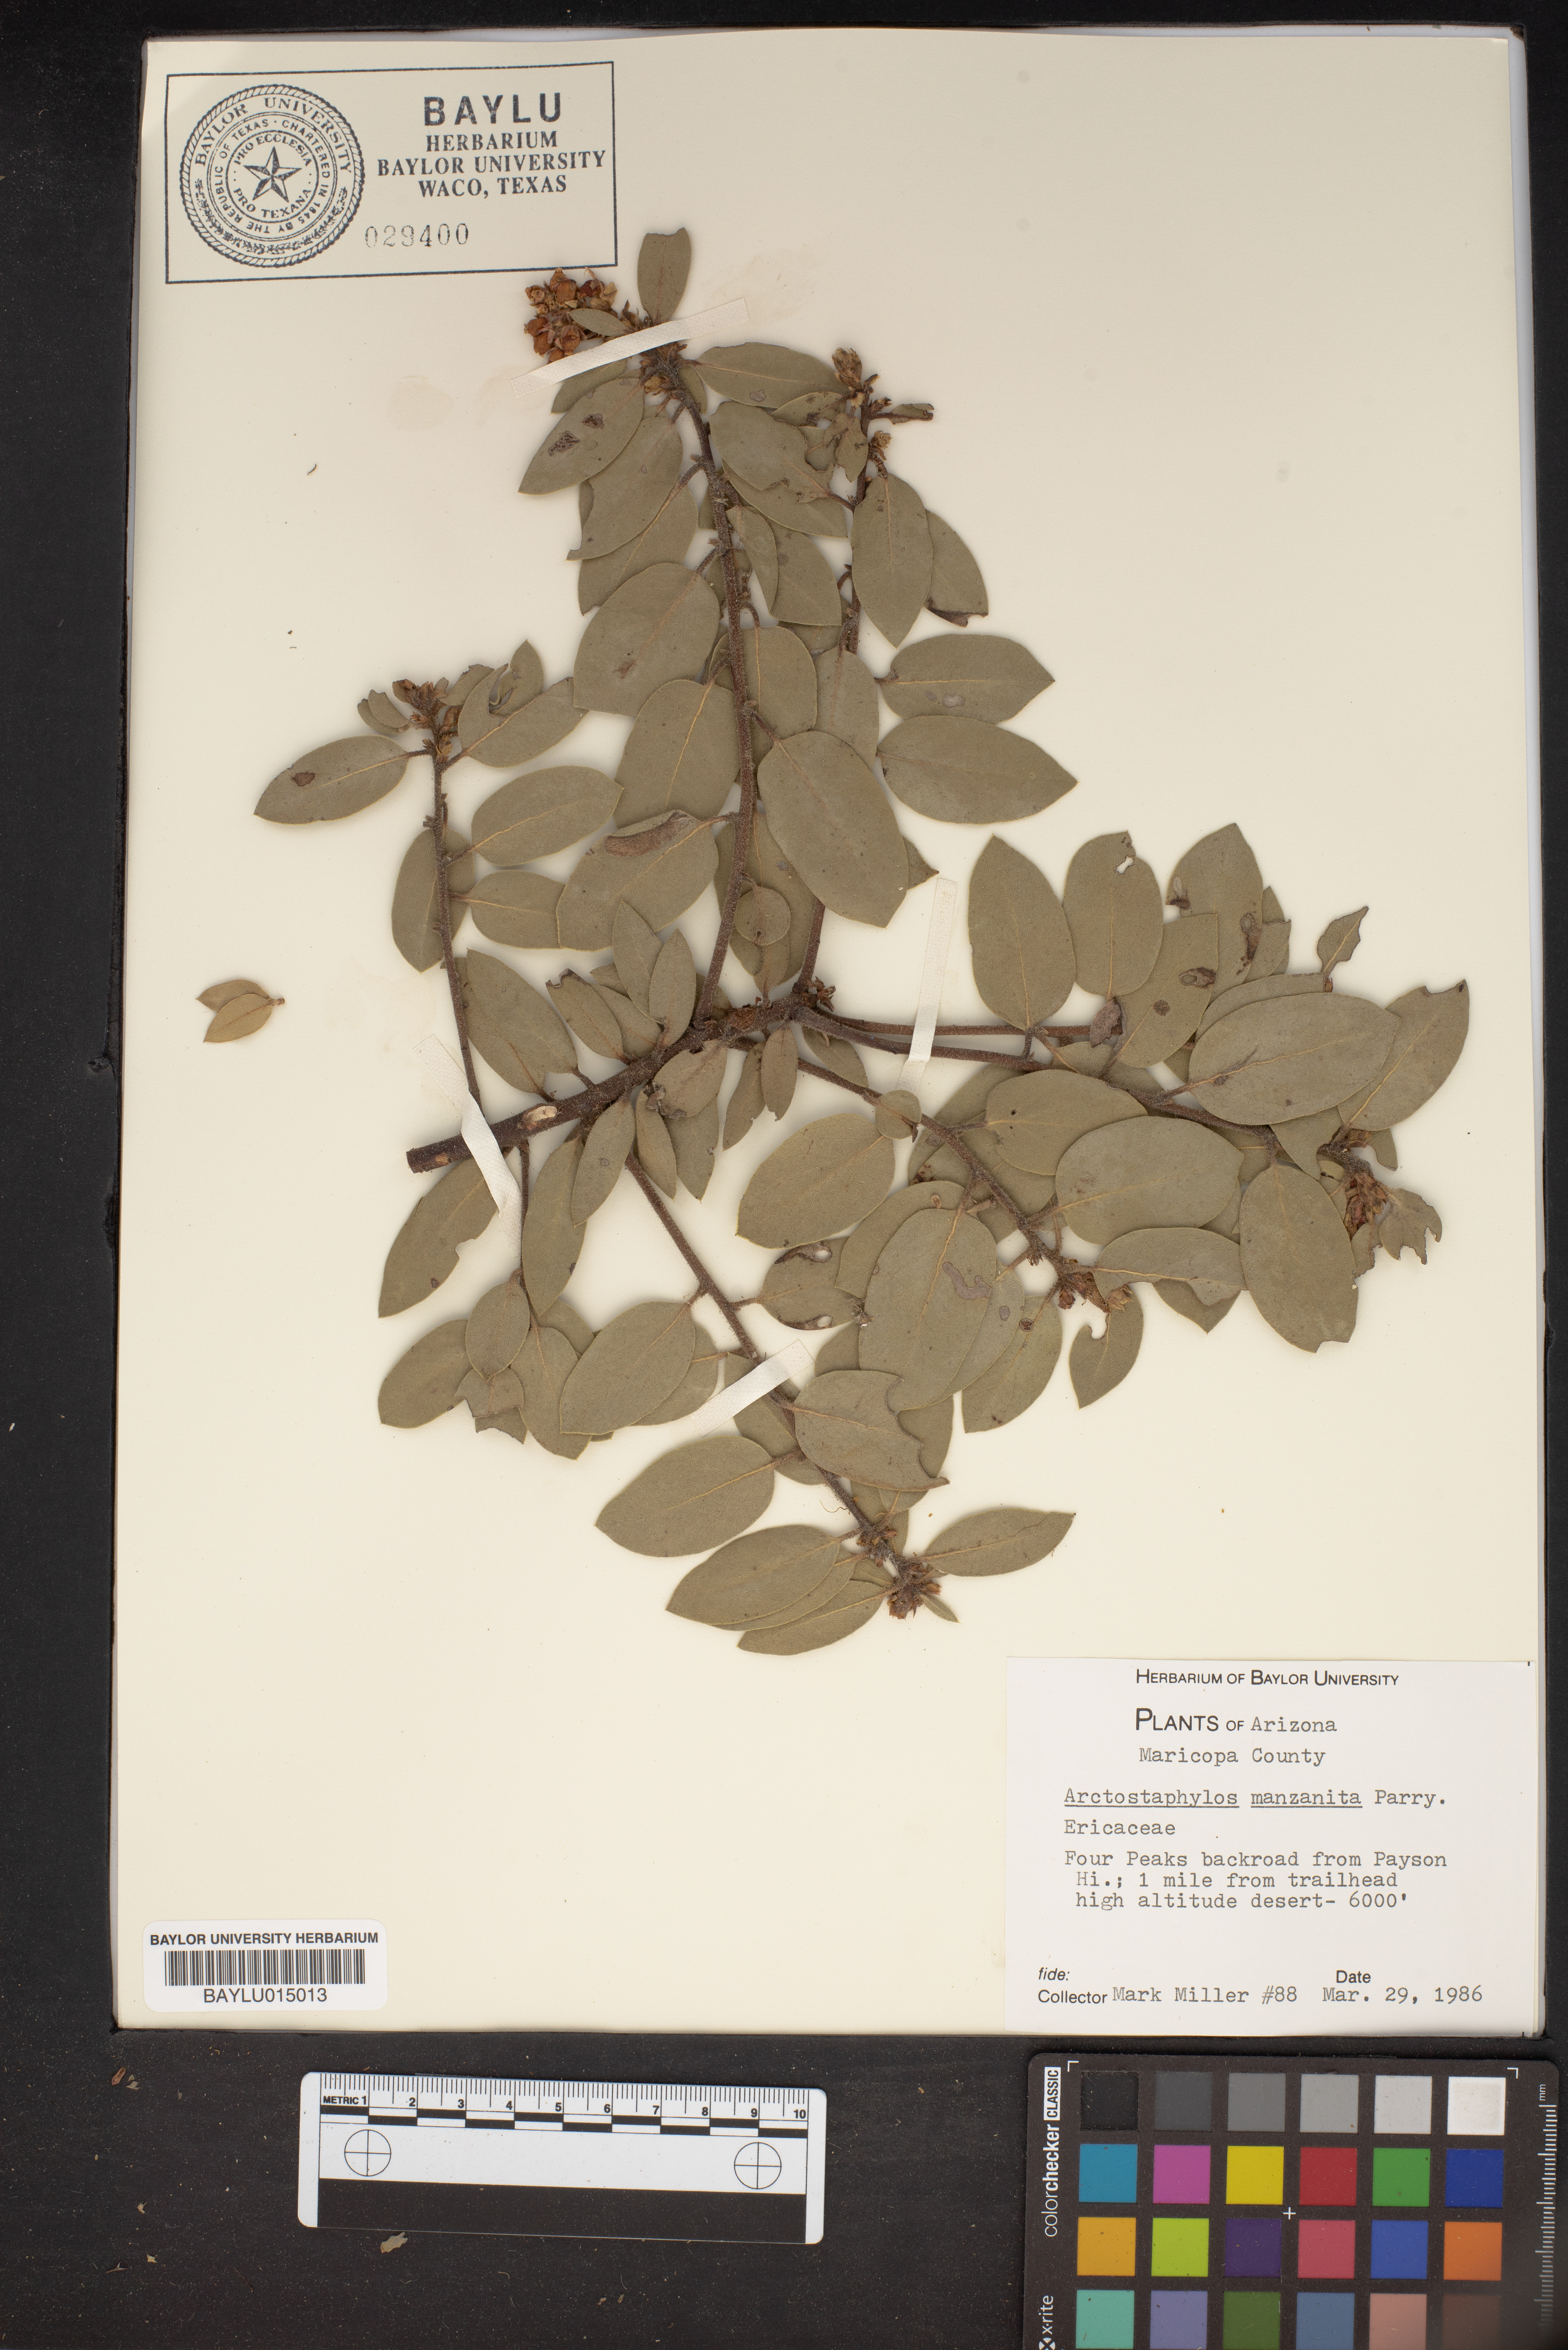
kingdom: Plantae
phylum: Tracheophyta
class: Magnoliopsida
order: Ericales
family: Ericaceae
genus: Arctostaphylos
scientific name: Arctostaphylos manzanita
